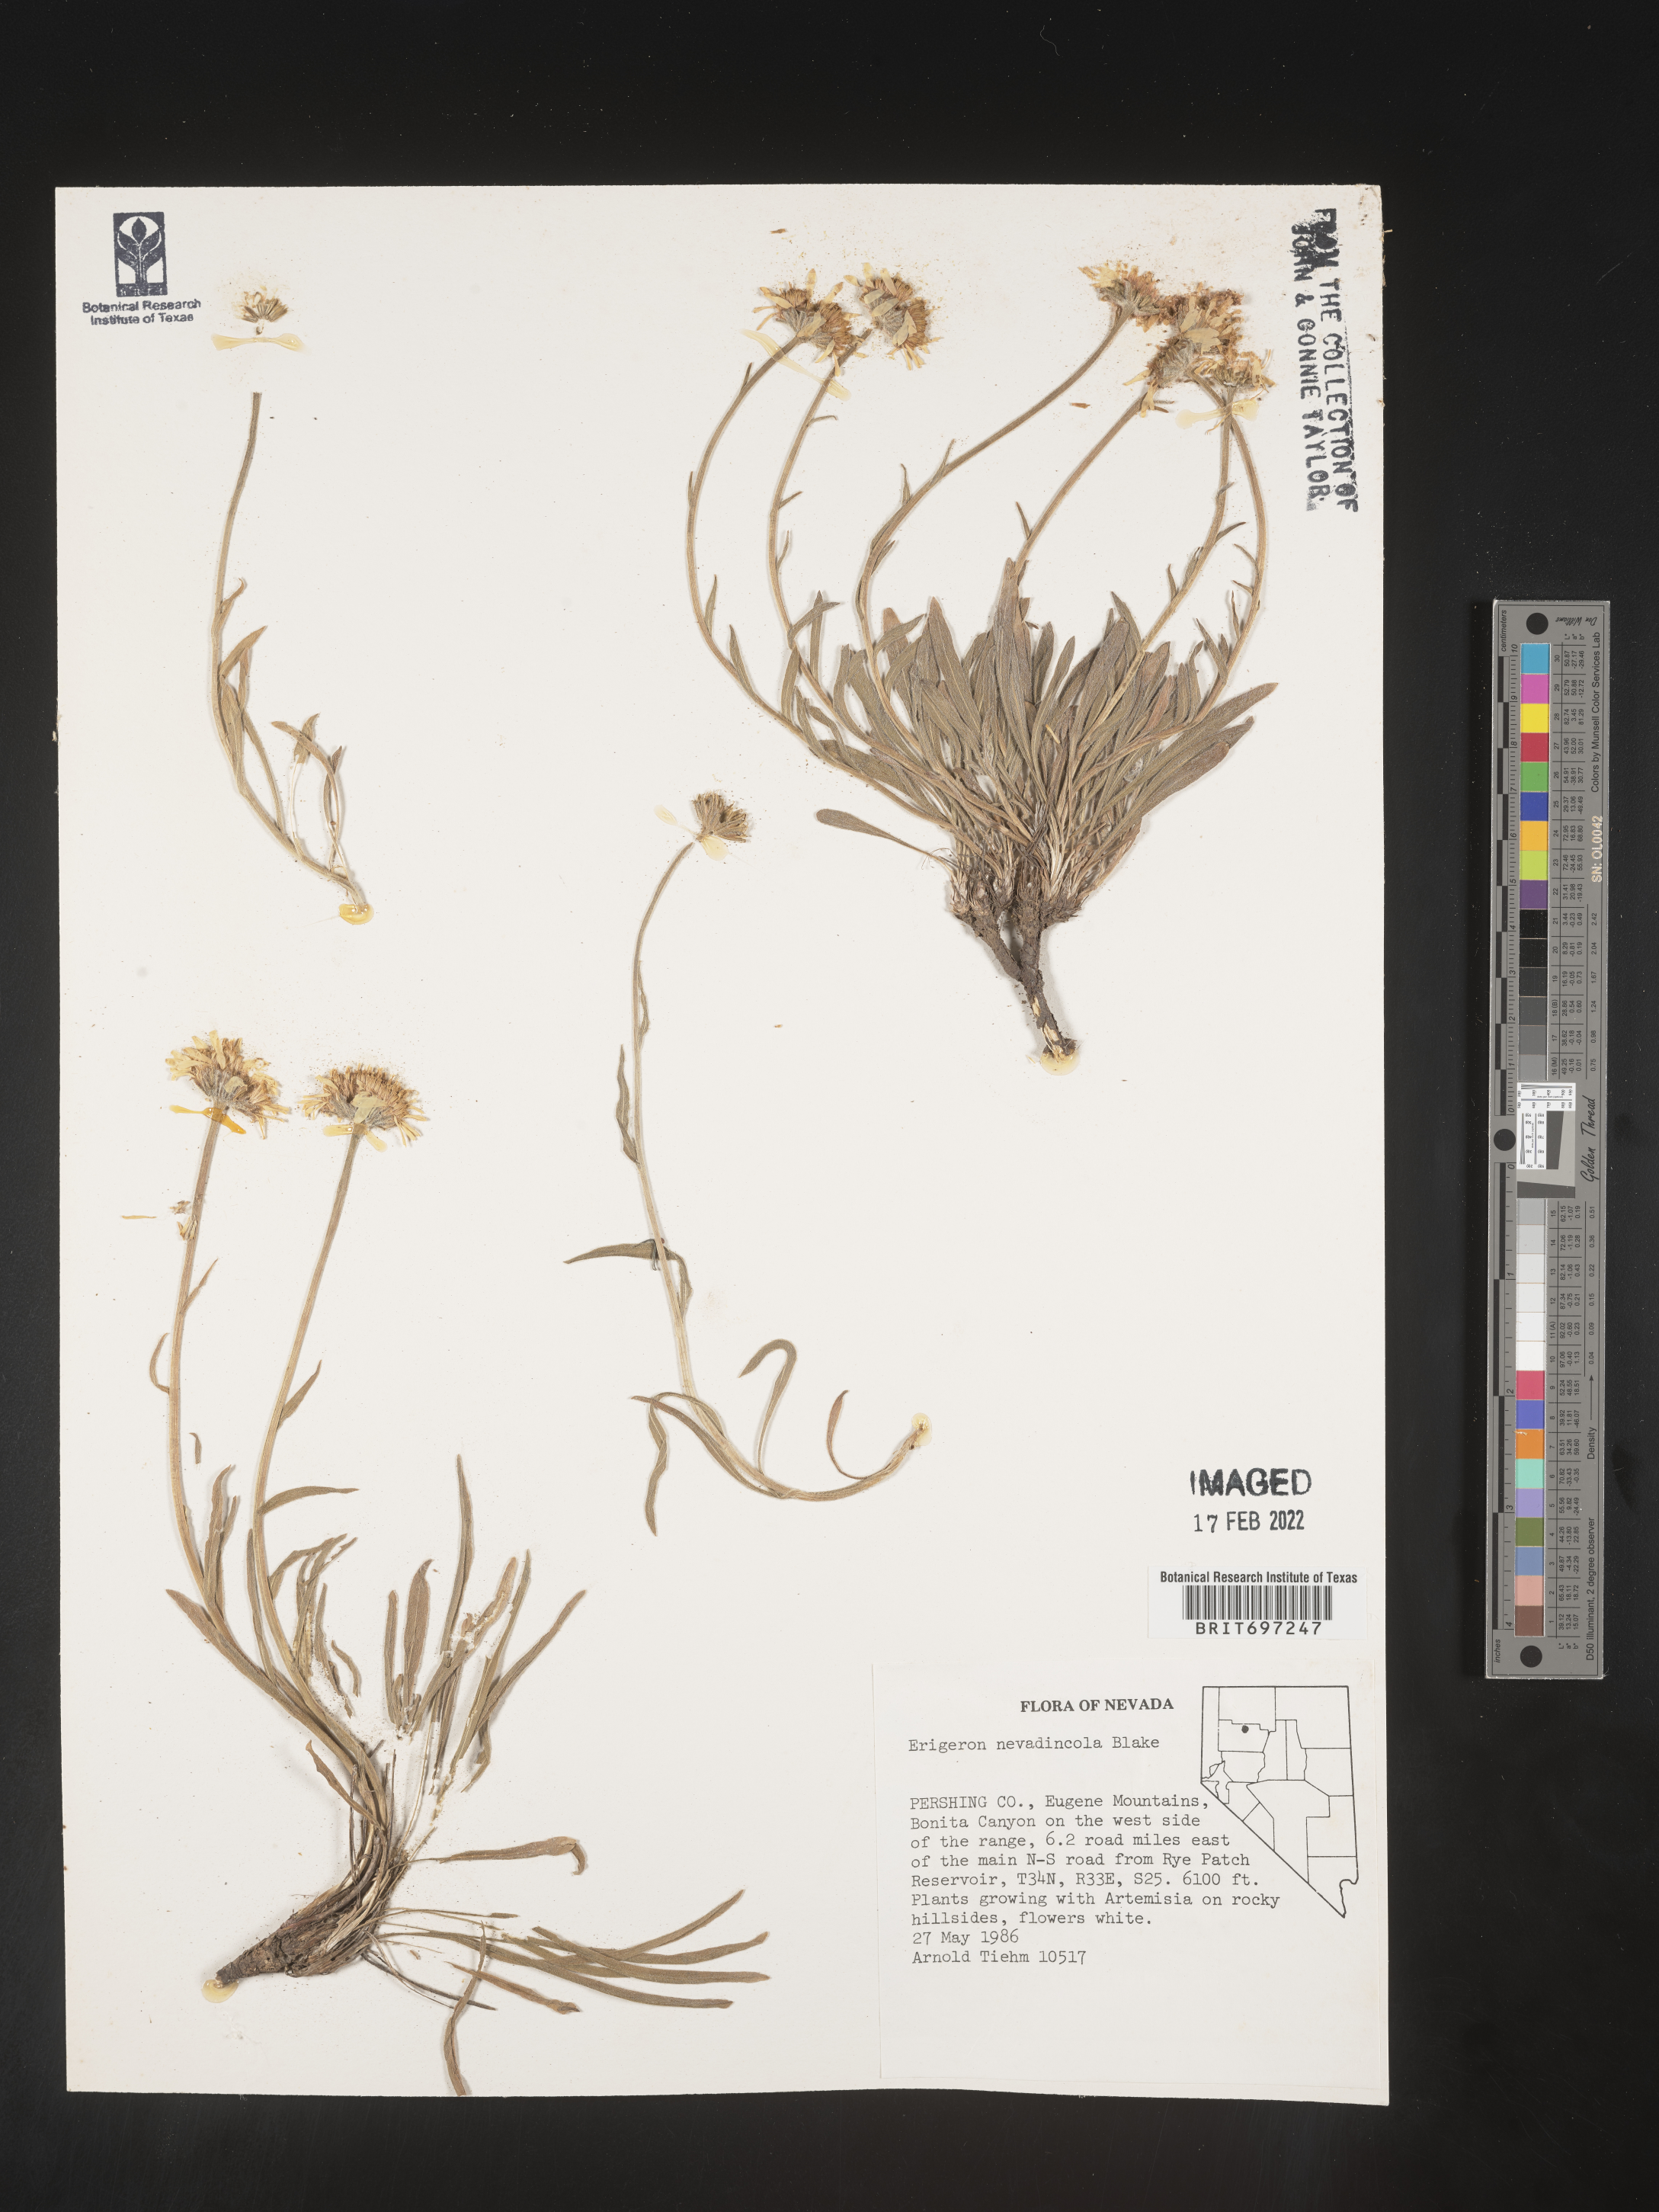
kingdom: Plantae
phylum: Tracheophyta
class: Magnoliopsida
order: Asterales
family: Asteraceae
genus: Erigeron
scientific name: Erigeron eatonii
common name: Eaton's fleabane
